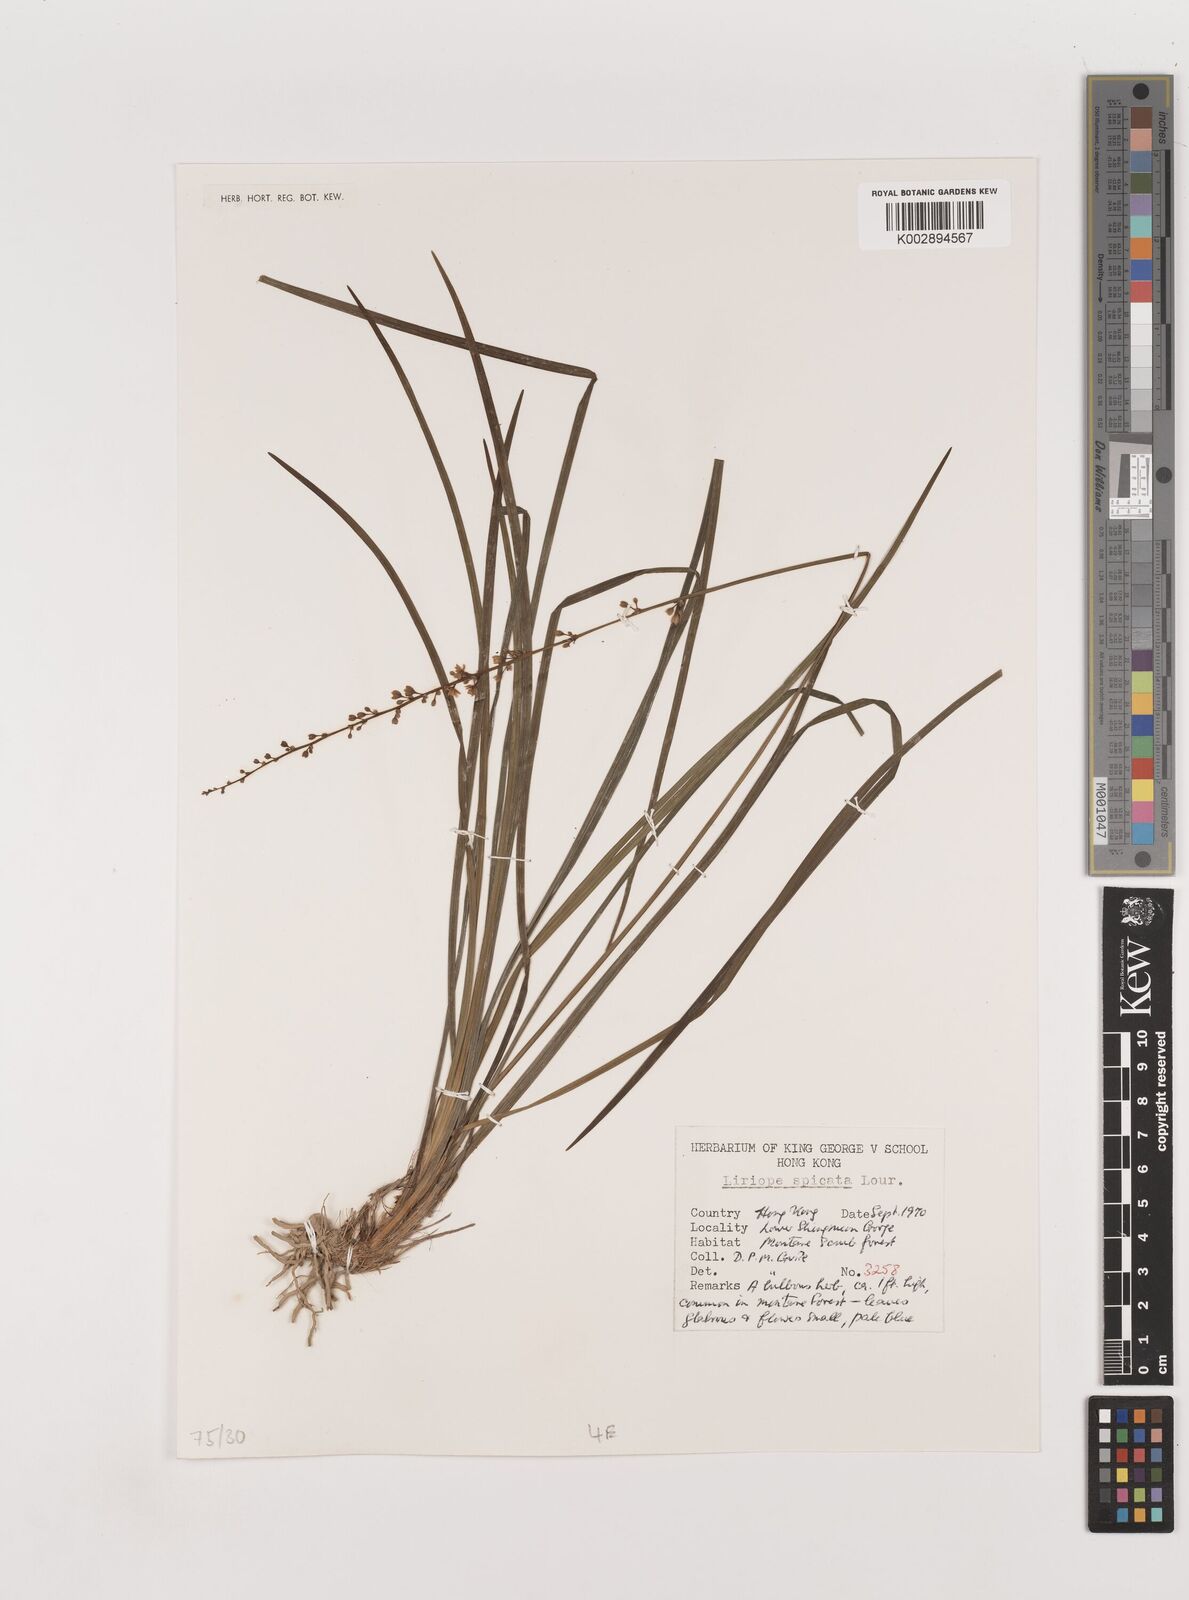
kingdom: Plantae
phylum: Tracheophyta
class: Liliopsida
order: Asparagales
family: Asparagaceae
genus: Liriope
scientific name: Liriope spicata
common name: Creeping liriope
